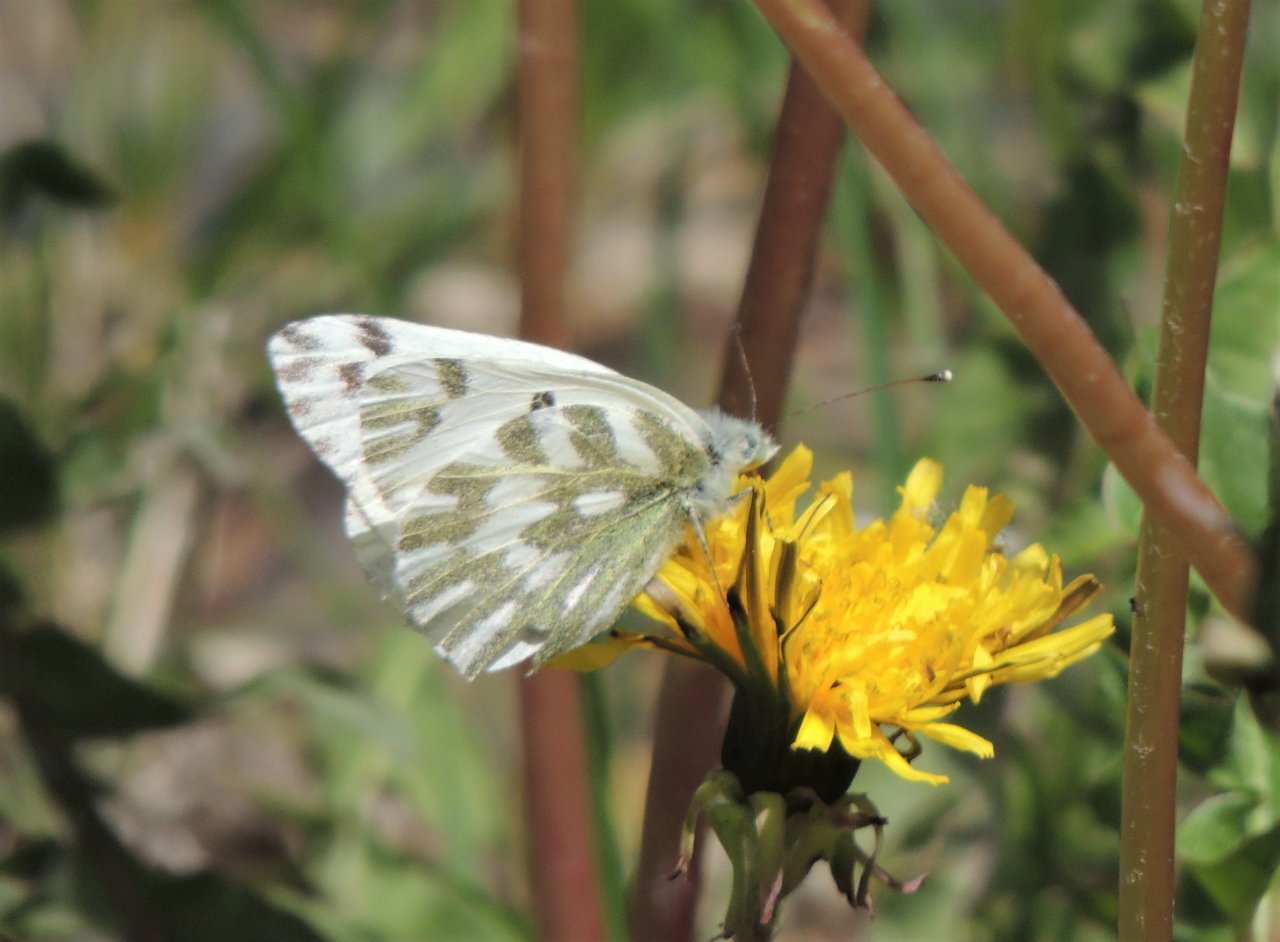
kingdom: Animalia
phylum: Arthropoda
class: Insecta
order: Lepidoptera
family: Pieridae
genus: Pontia
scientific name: Pontia beckerii
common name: Becker's White
